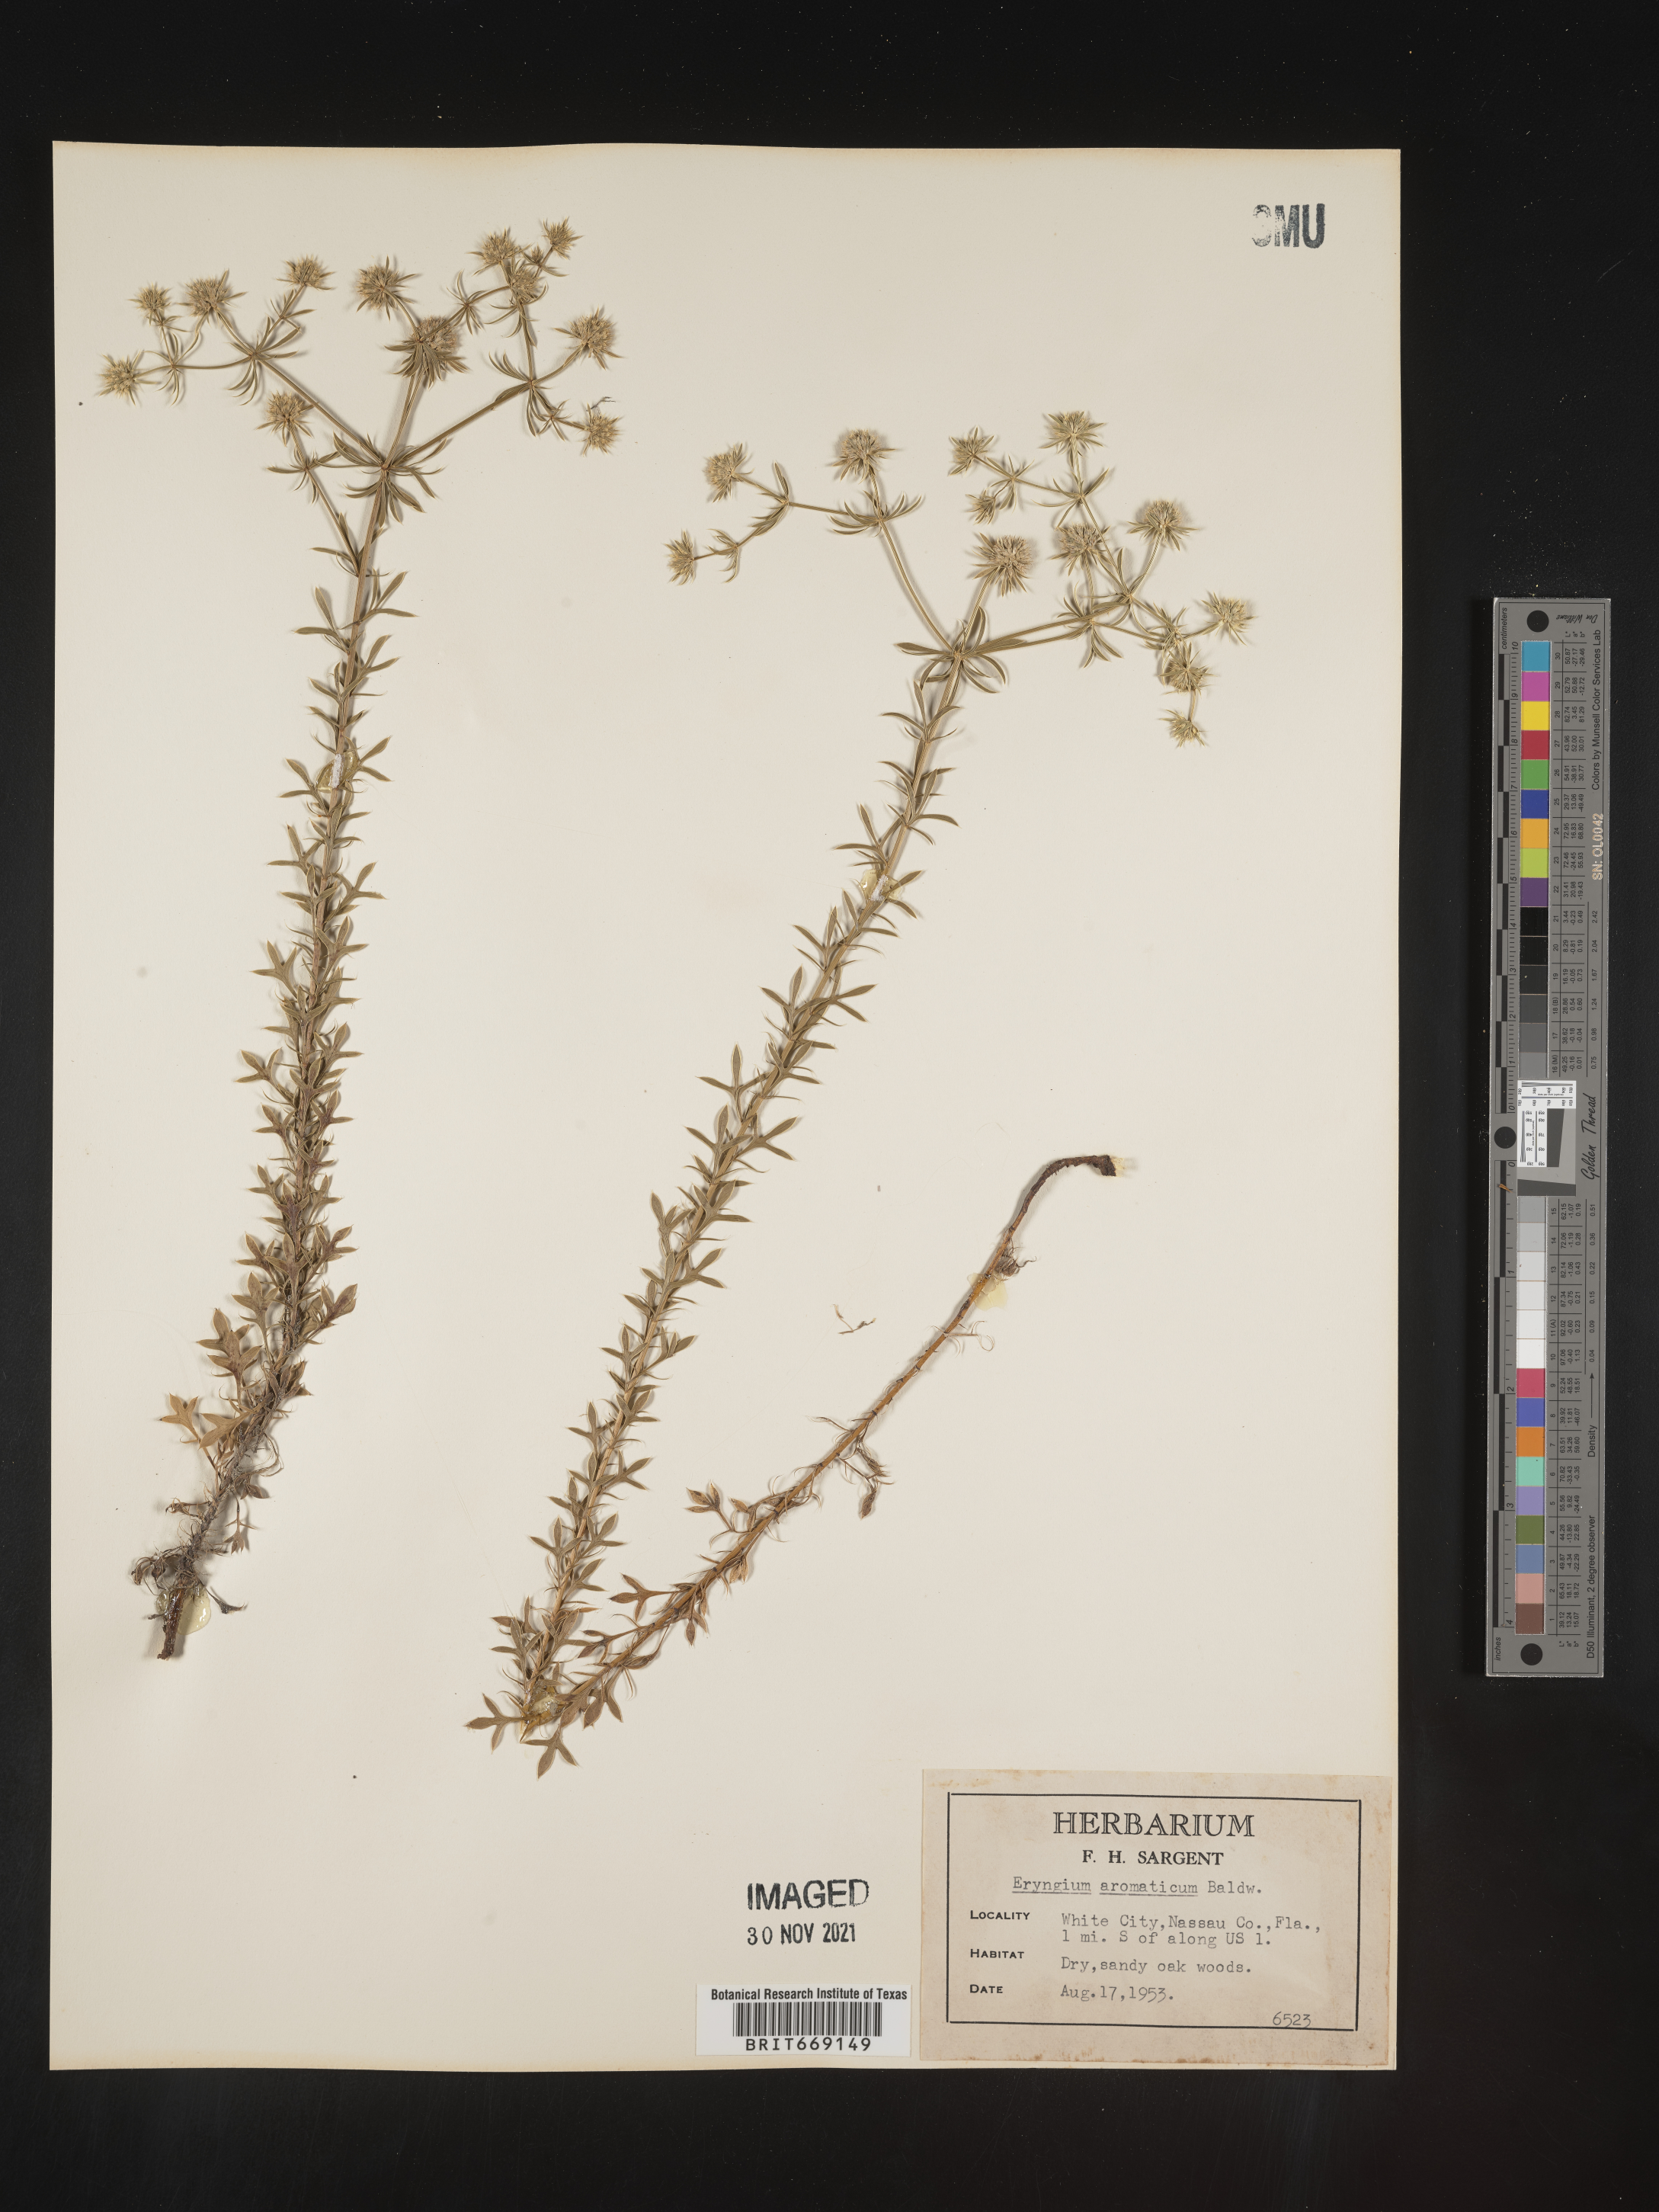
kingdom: Plantae
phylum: Tracheophyta
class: Magnoliopsida
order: Apiales
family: Apiaceae
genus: Eryngium
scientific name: Eryngium aromaticum
